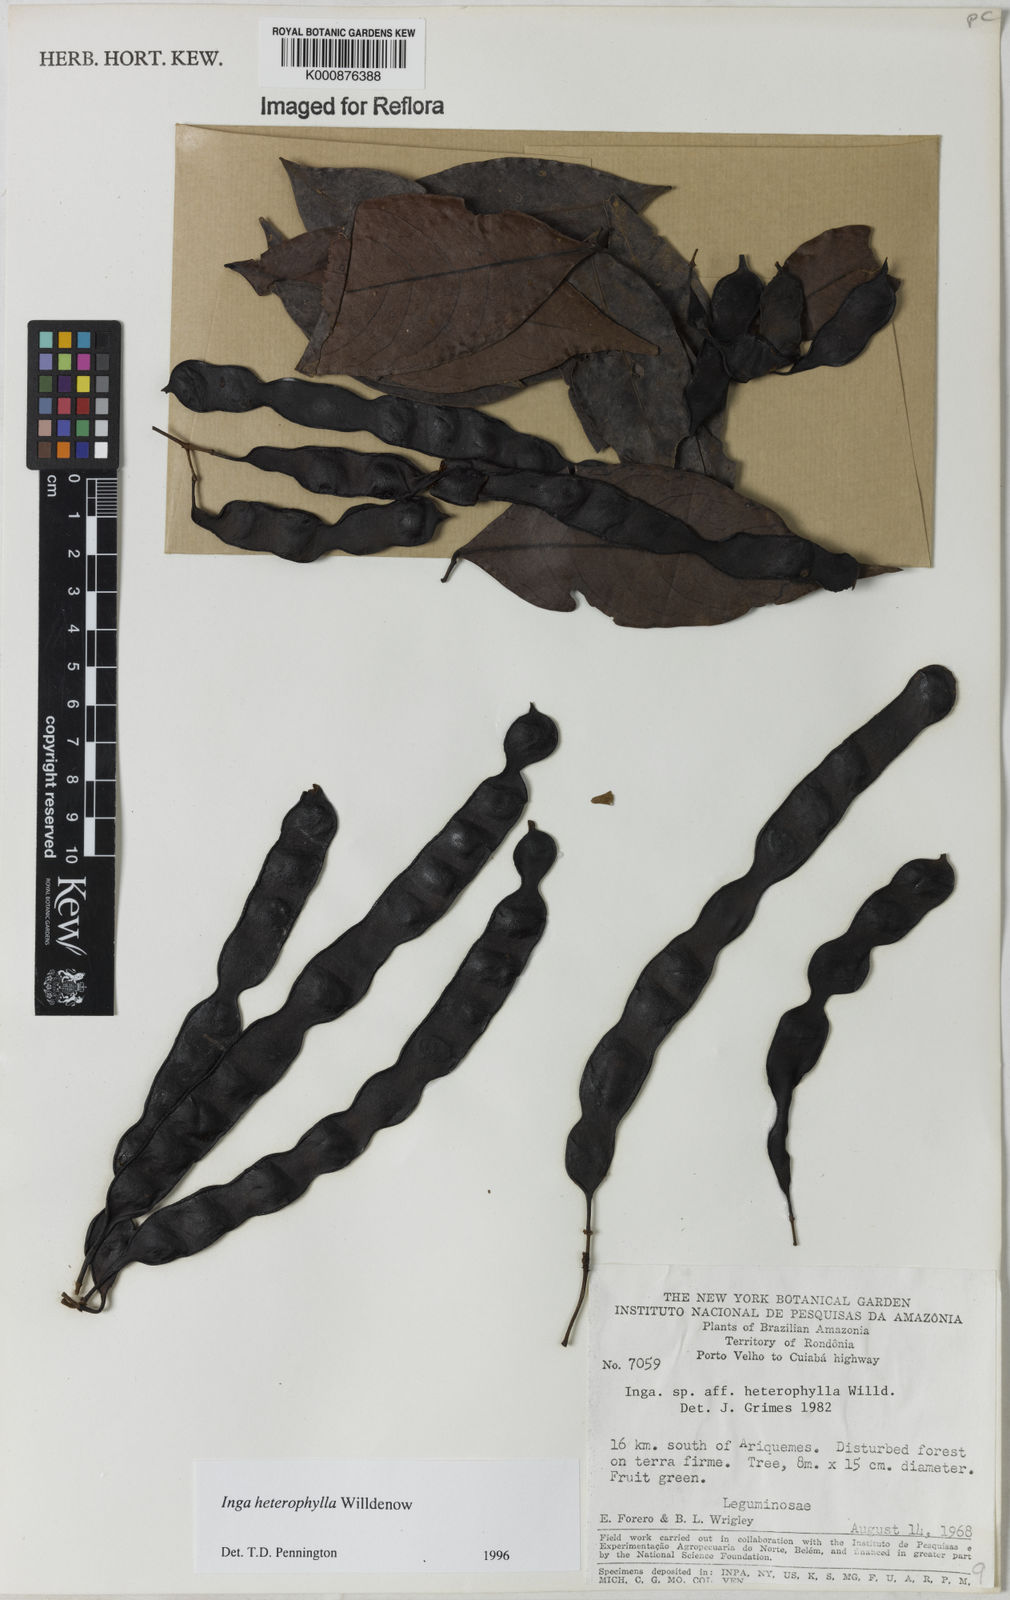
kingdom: Plantae
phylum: Tracheophyta
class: Magnoliopsida
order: Fabales
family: Fabaceae
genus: Inga
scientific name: Inga heterophylla
